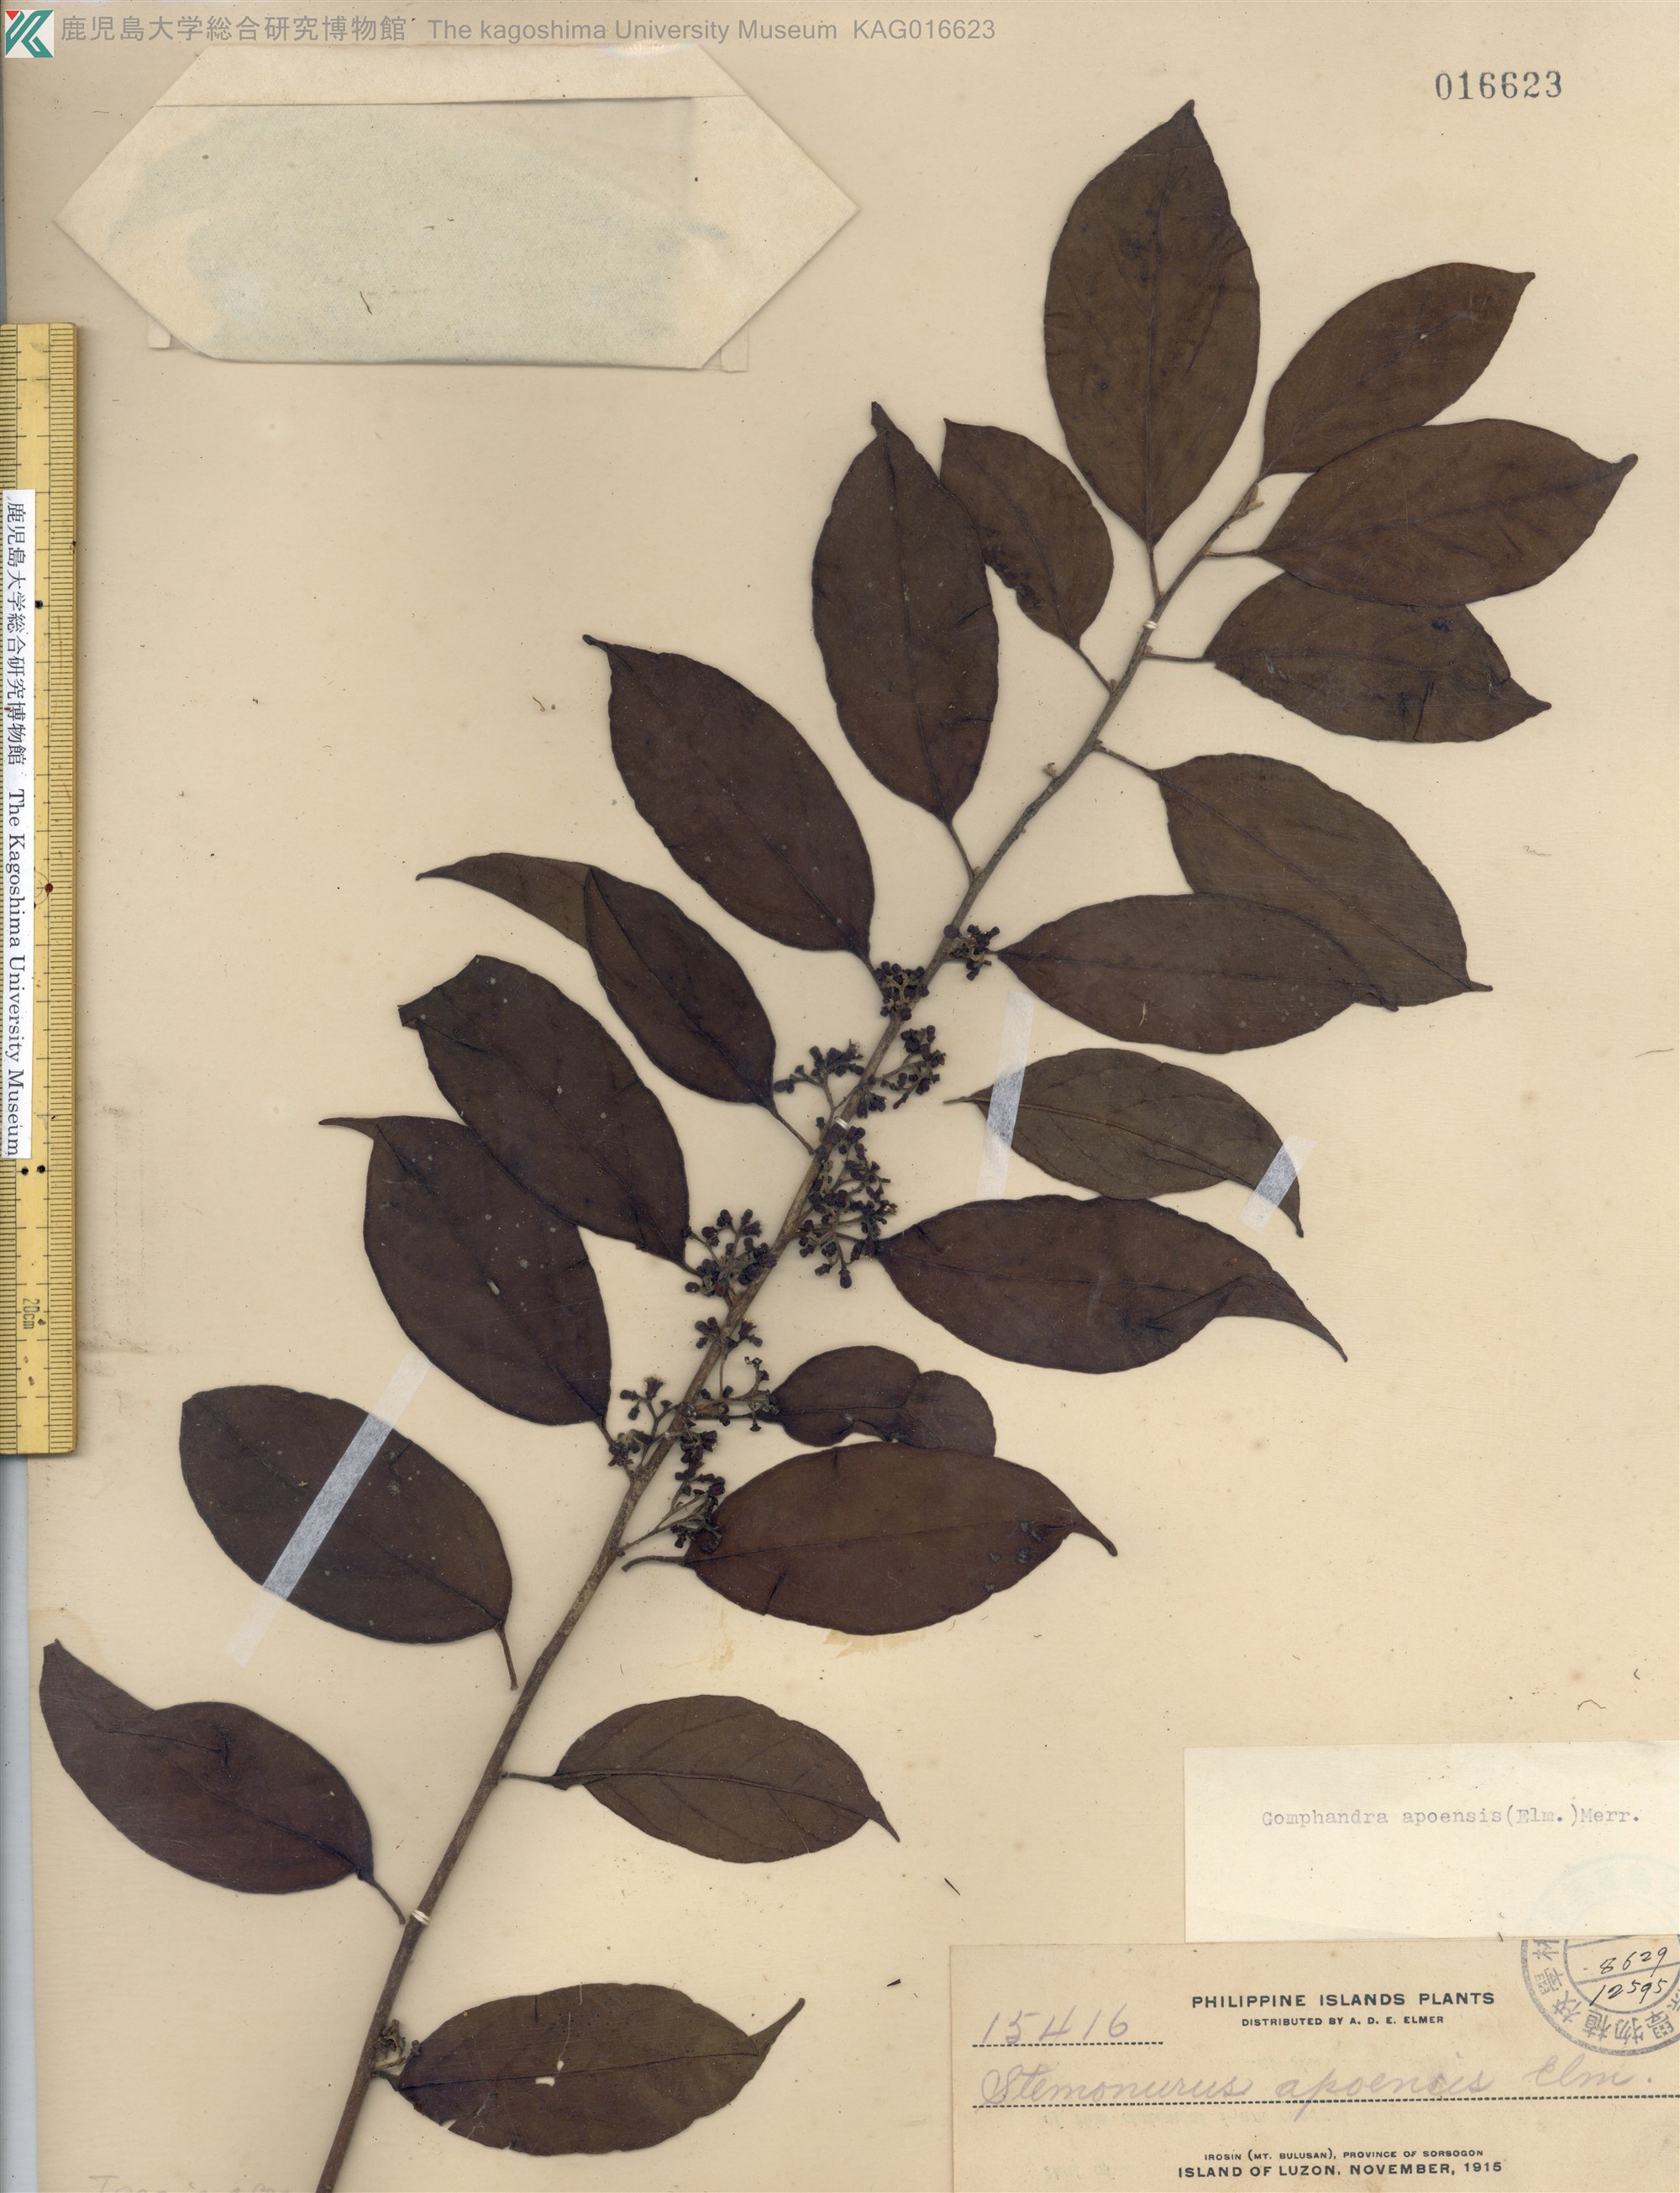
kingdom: Plantae
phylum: Tracheophyta
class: Magnoliopsida
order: Cardiopteridales
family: Stemonuraceae
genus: Gomphandra
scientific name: Gomphandra apoensis
